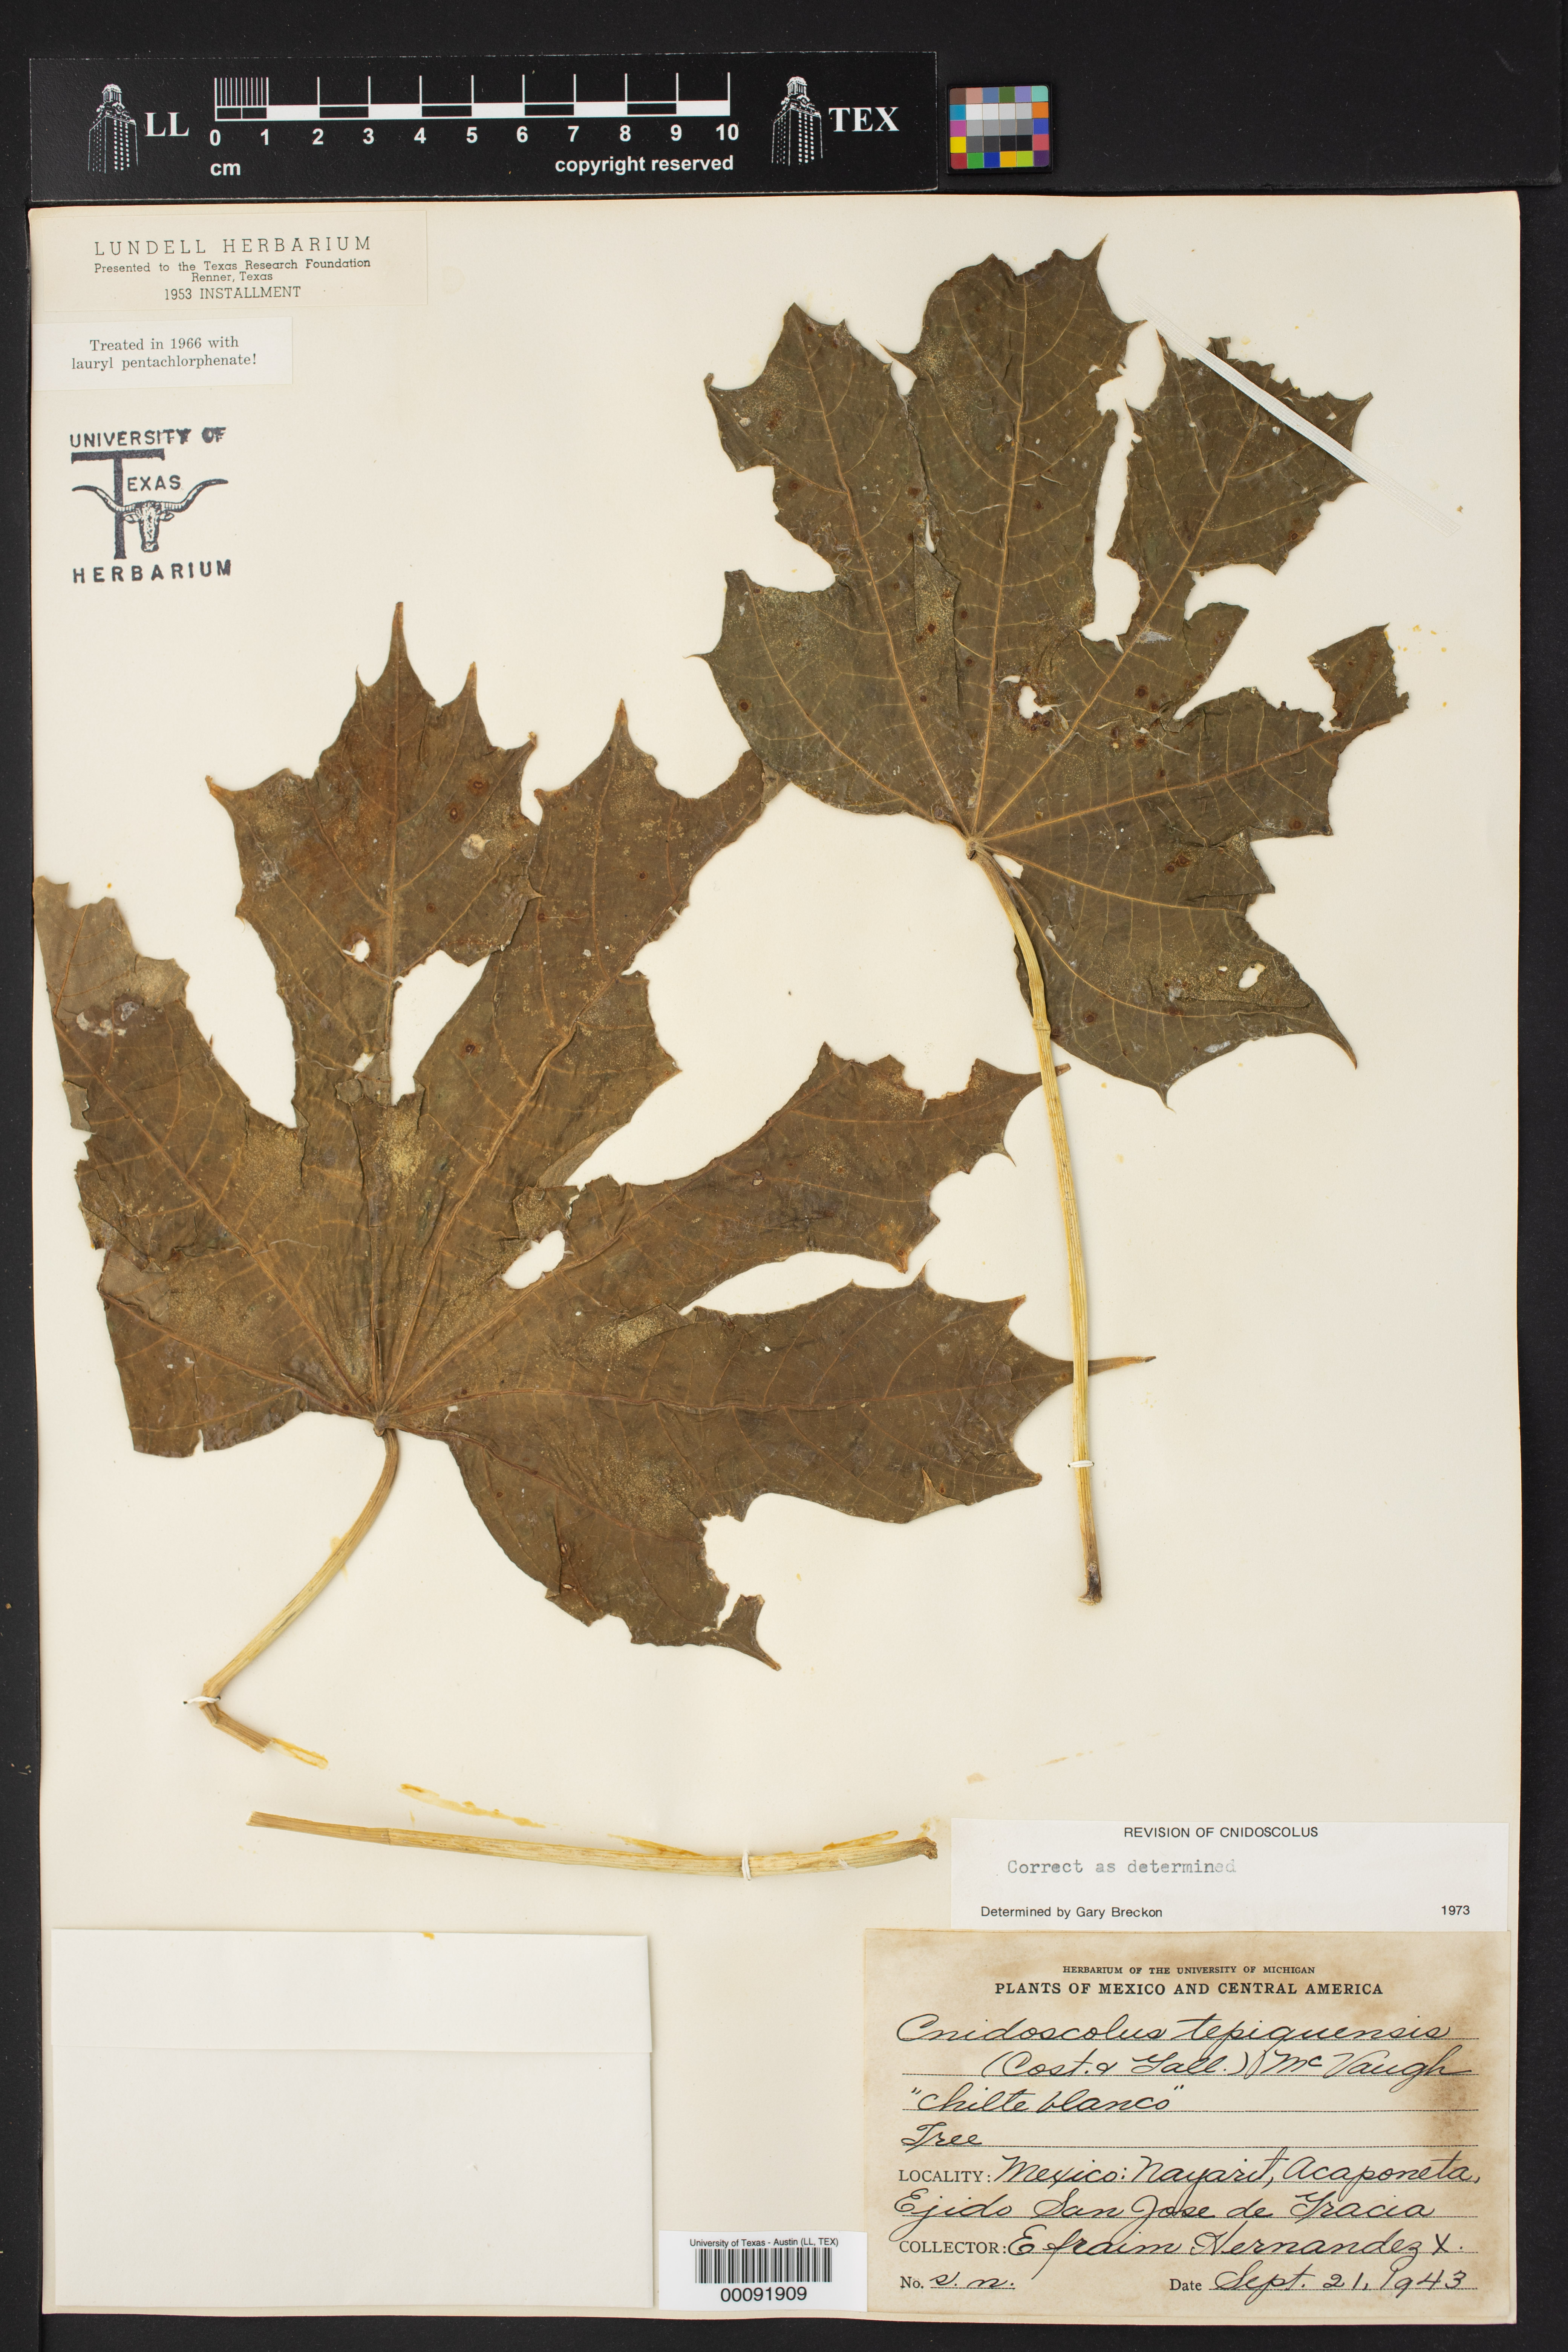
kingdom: Plantae
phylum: Tracheophyta
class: Magnoliopsida
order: Malpighiales
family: Euphorbiaceae
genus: Cnidoscolus
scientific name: Cnidoscolus tepiquensis
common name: White chilte
